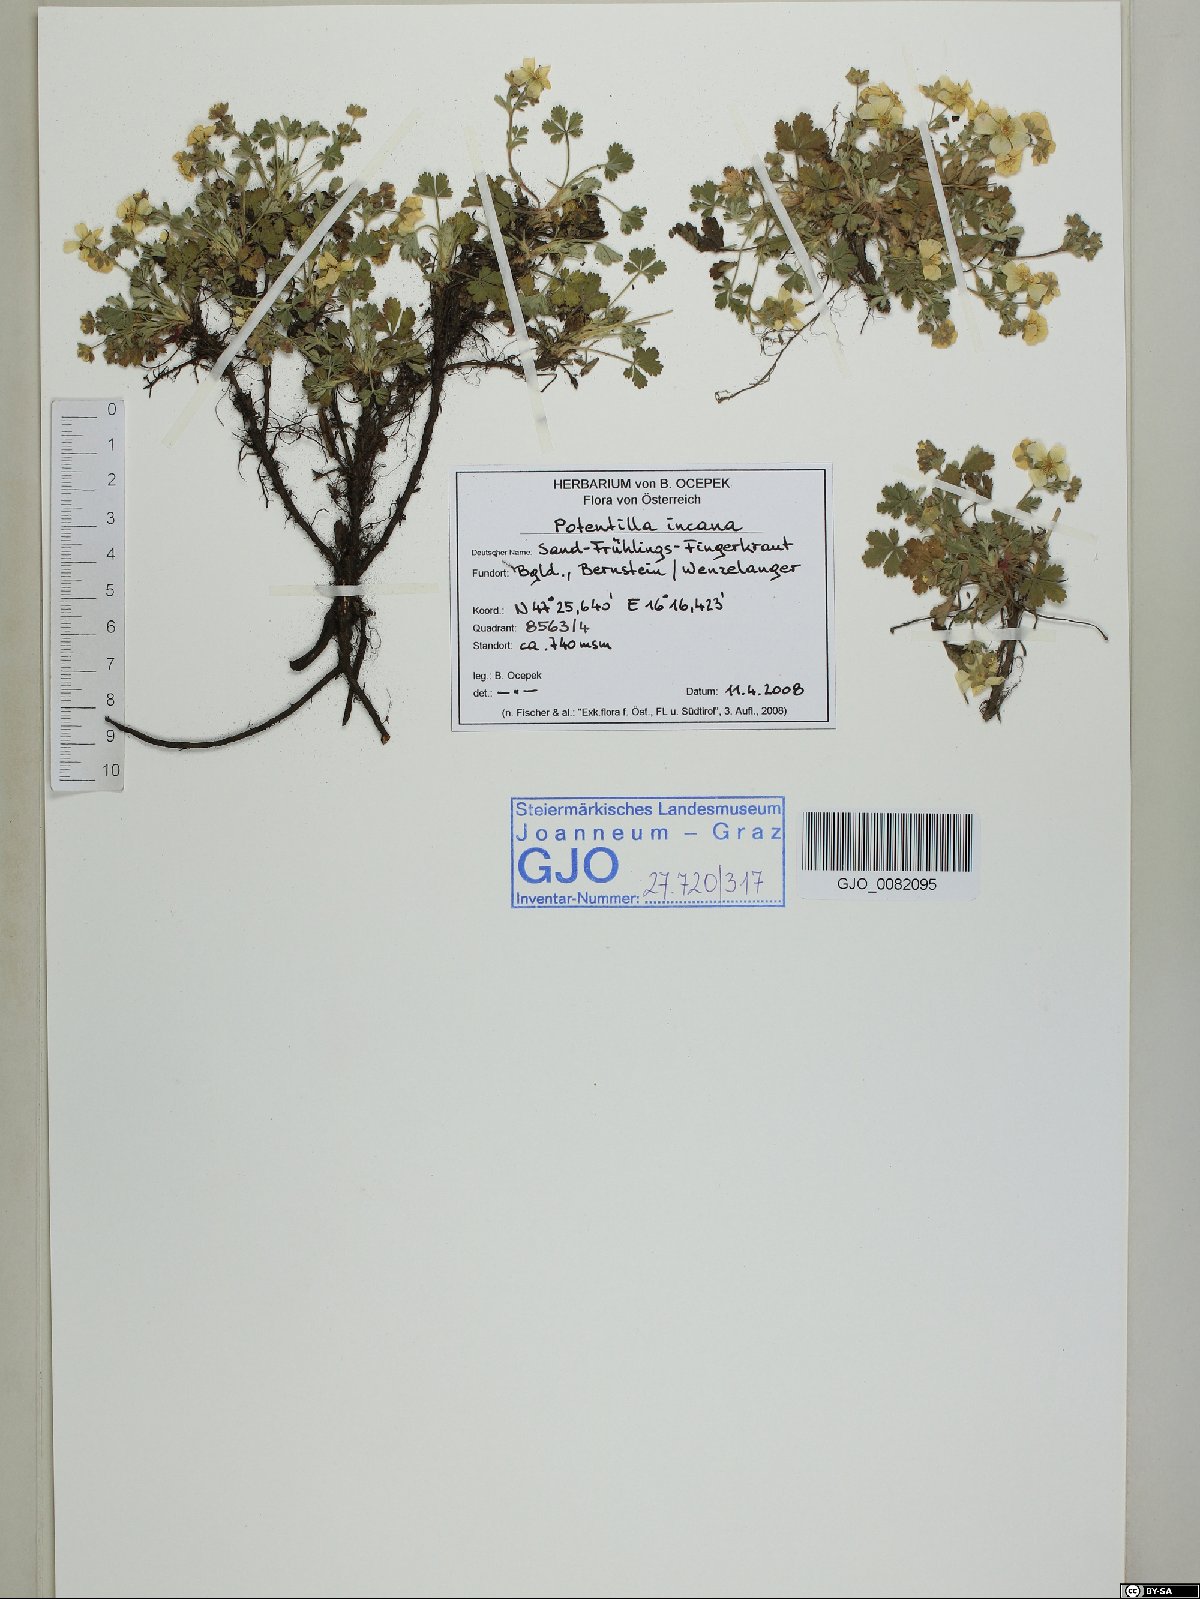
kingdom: Plantae
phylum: Tracheophyta
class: Magnoliopsida
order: Rosales
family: Rosaceae
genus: Potentilla
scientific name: Potentilla cinerea
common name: Ashy cinquefoil
